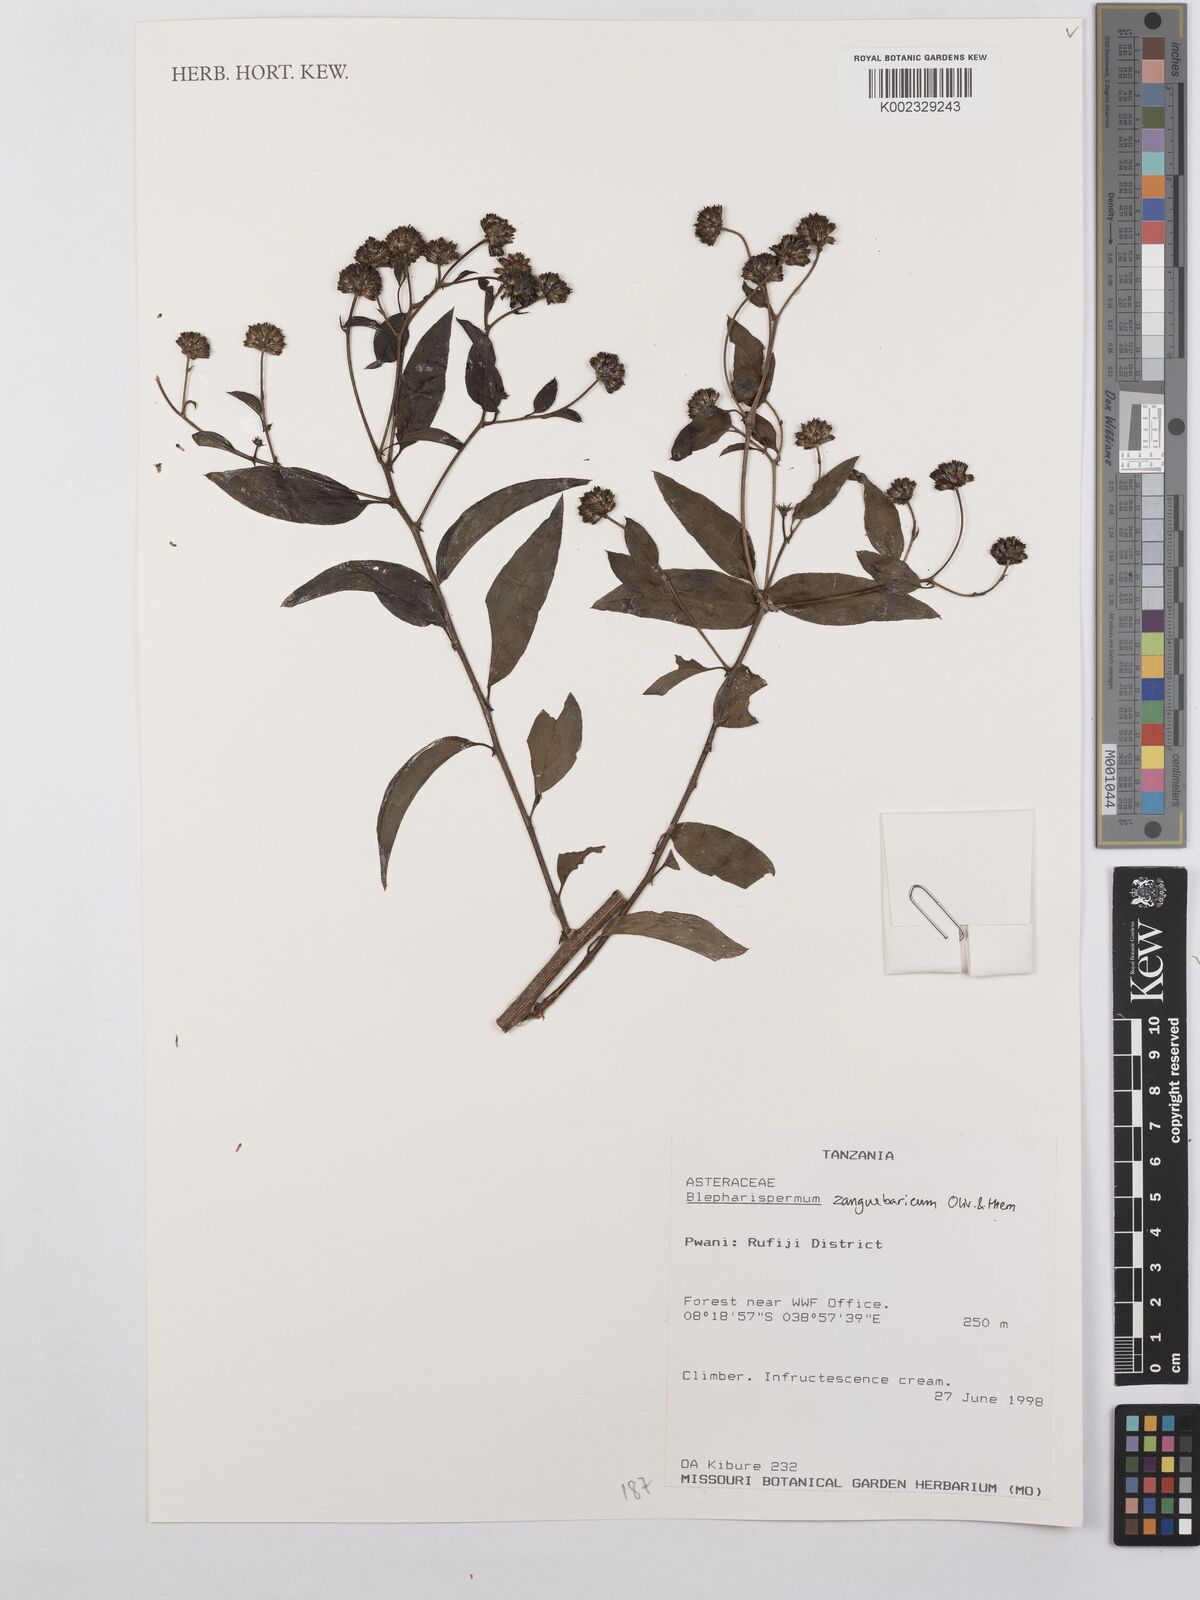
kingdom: Plantae
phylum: Tracheophyta
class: Magnoliopsida
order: Asterales
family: Asteraceae
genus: Blepharispermum
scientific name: Blepharispermum zanguebaricum
